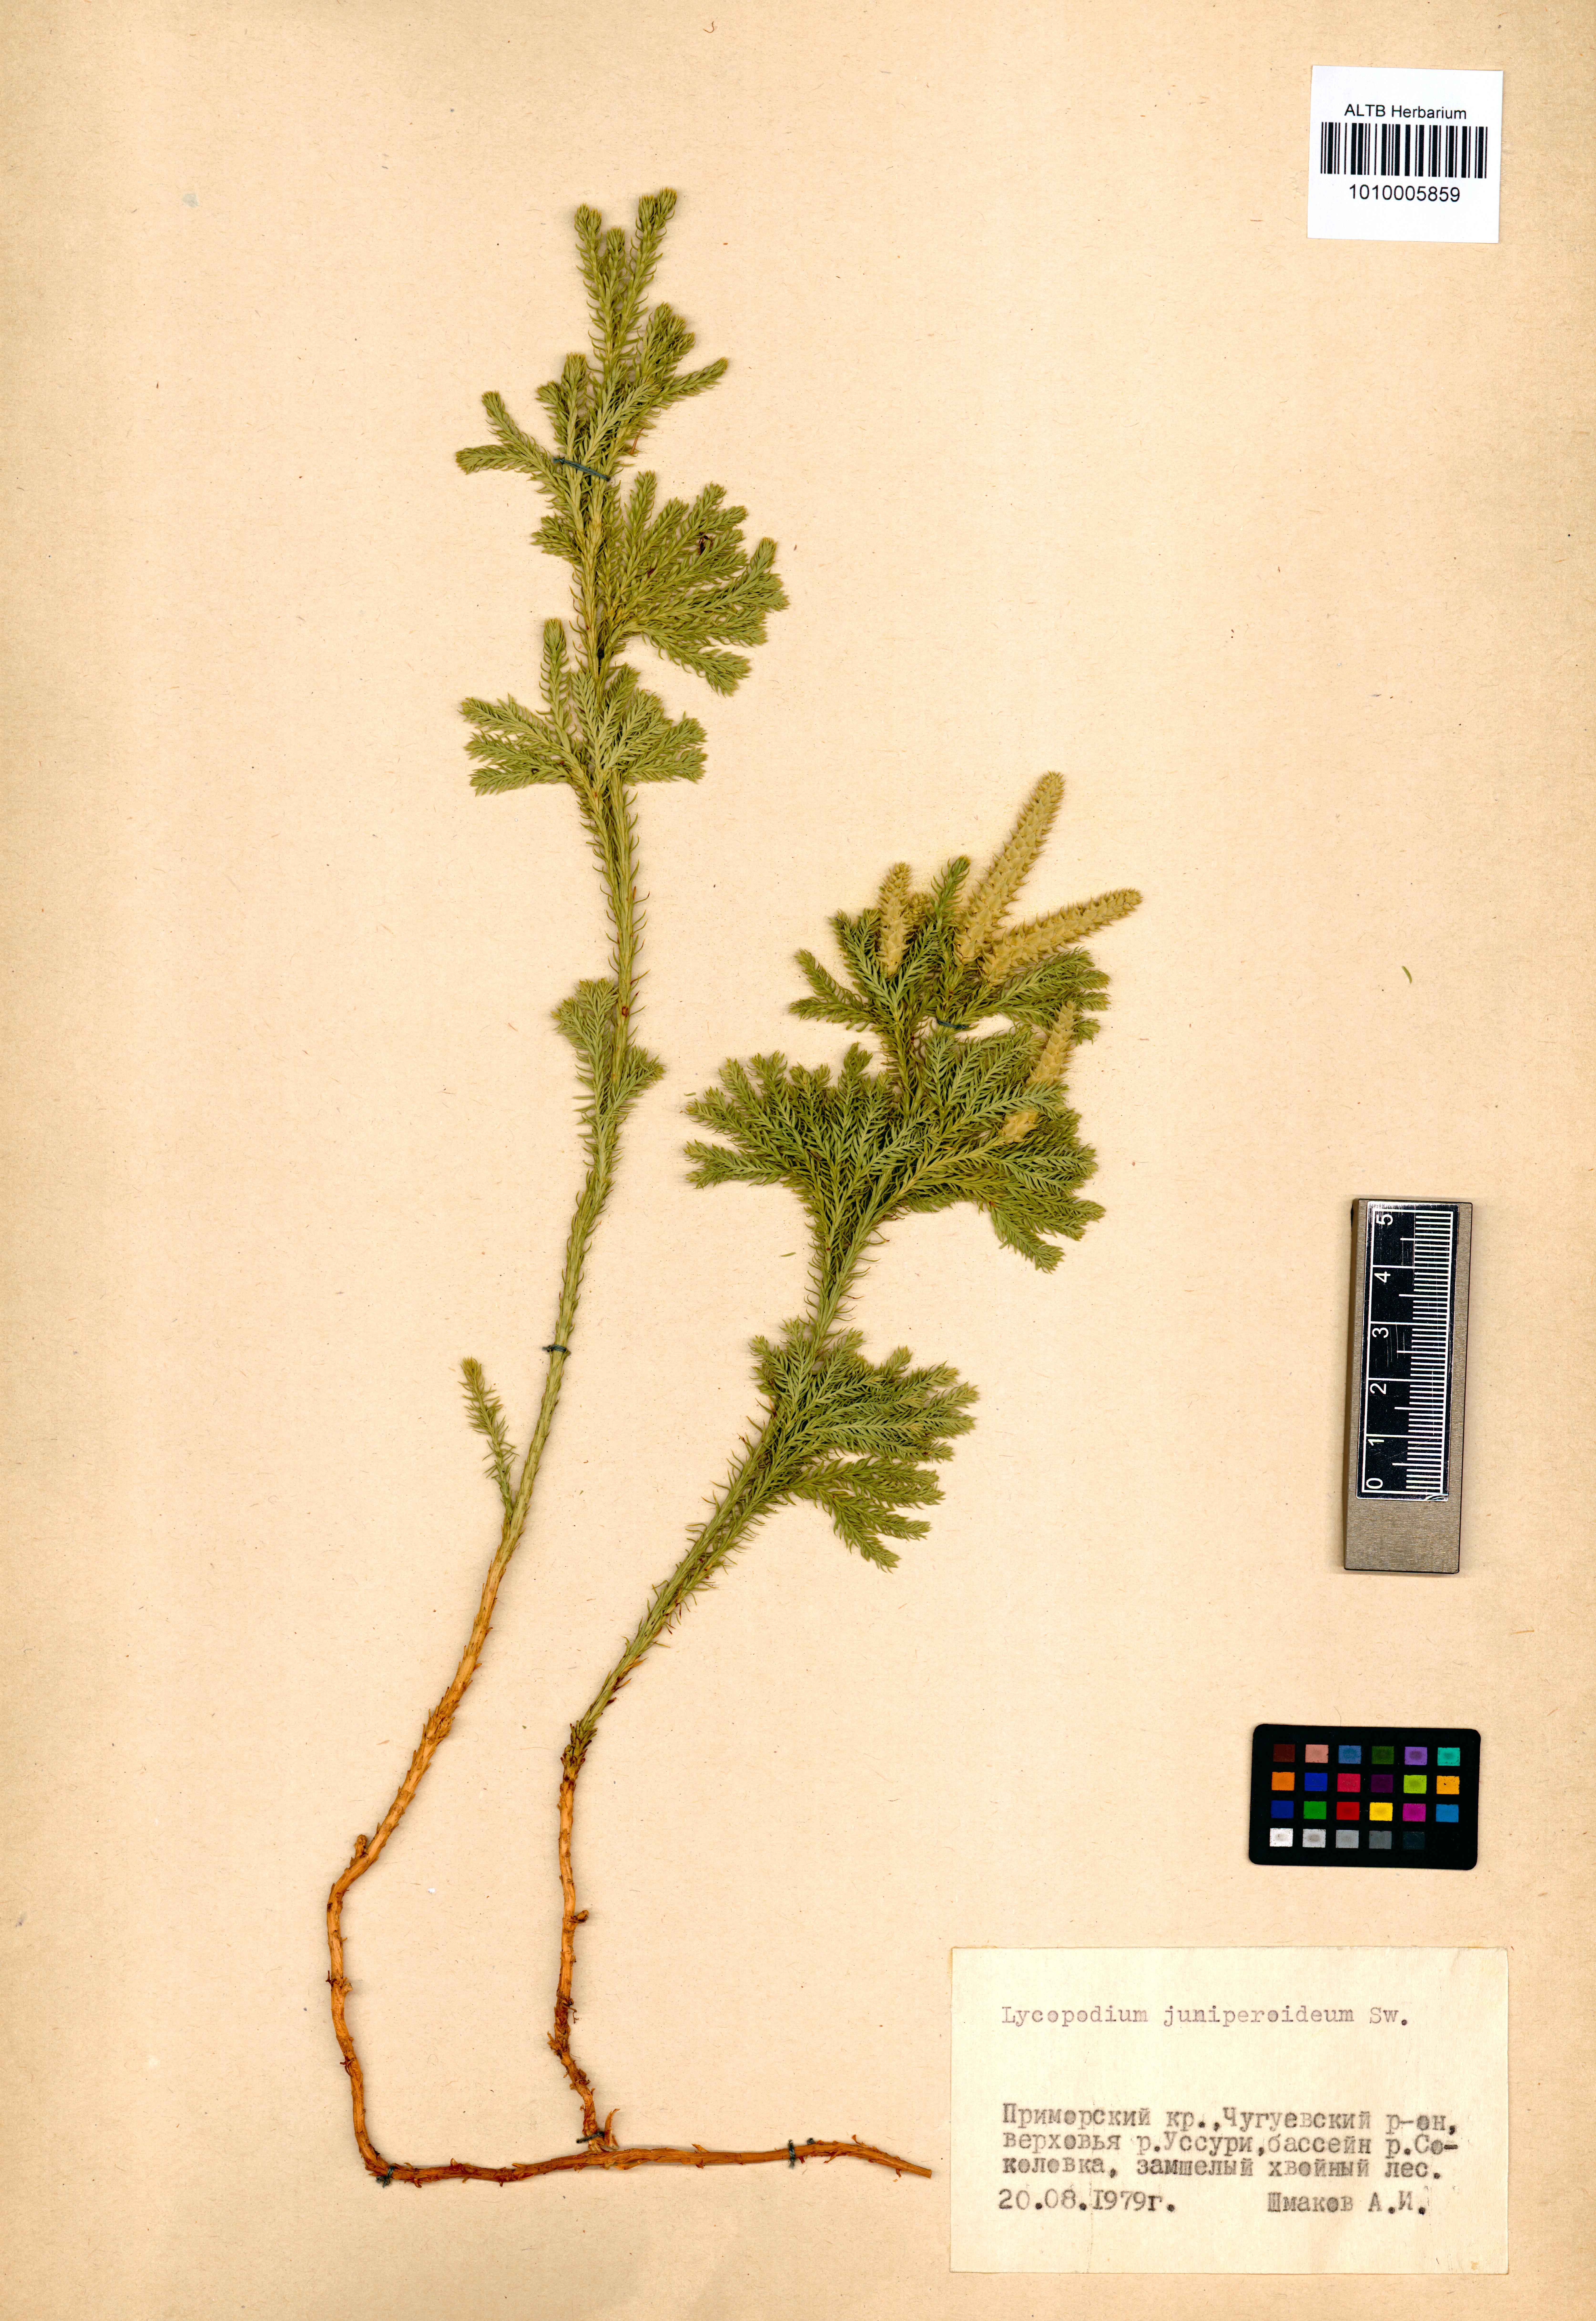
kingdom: Plantae
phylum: Tracheophyta
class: Lycopodiopsida
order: Lycopodiales
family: Lycopodiaceae
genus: Dendrolycopodium
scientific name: Dendrolycopodium juniperoideum
